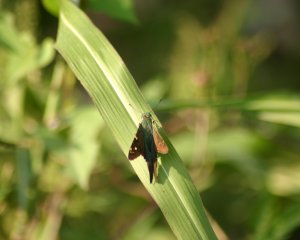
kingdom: Animalia
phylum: Arthropoda
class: Insecta
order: Lepidoptera
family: Hesperiidae
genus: Urbanus
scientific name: Urbanus proteus
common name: Long-tailed Skipper
